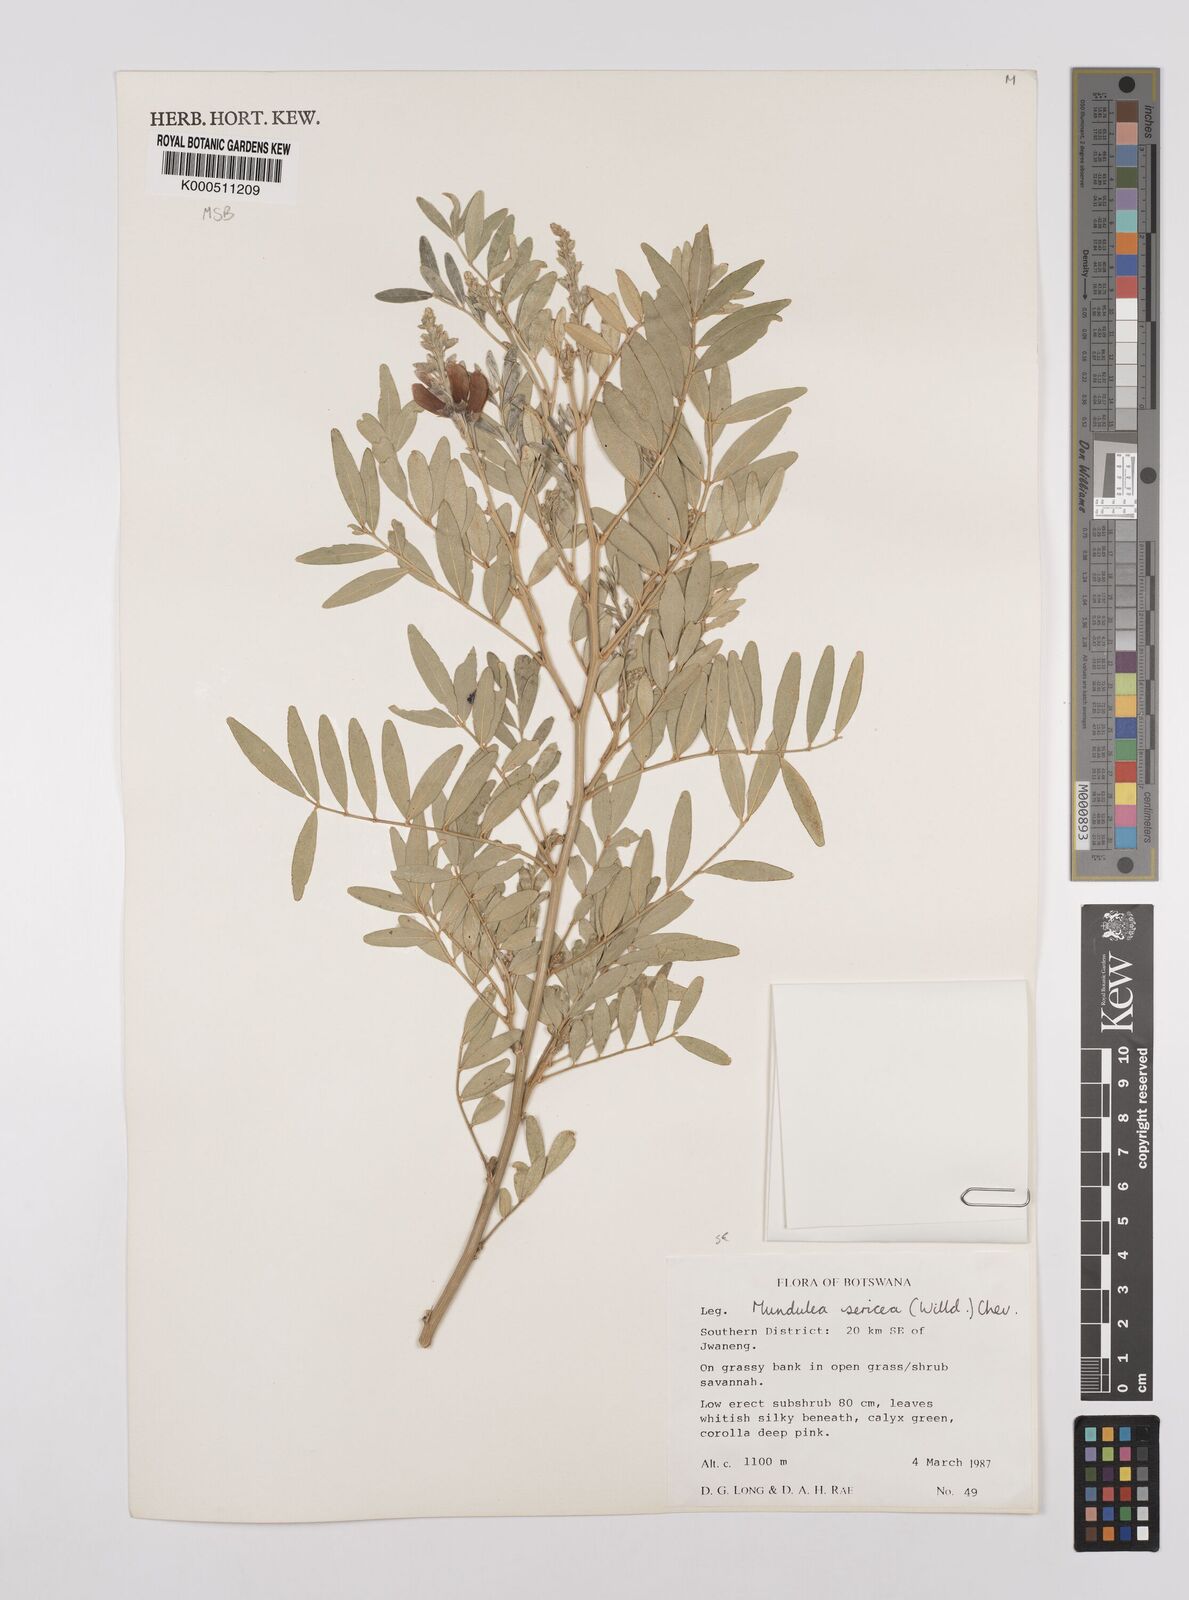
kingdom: Plantae
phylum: Tracheophyta
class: Magnoliopsida
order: Fabales
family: Fabaceae
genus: Mundulea
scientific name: Mundulea sericea
